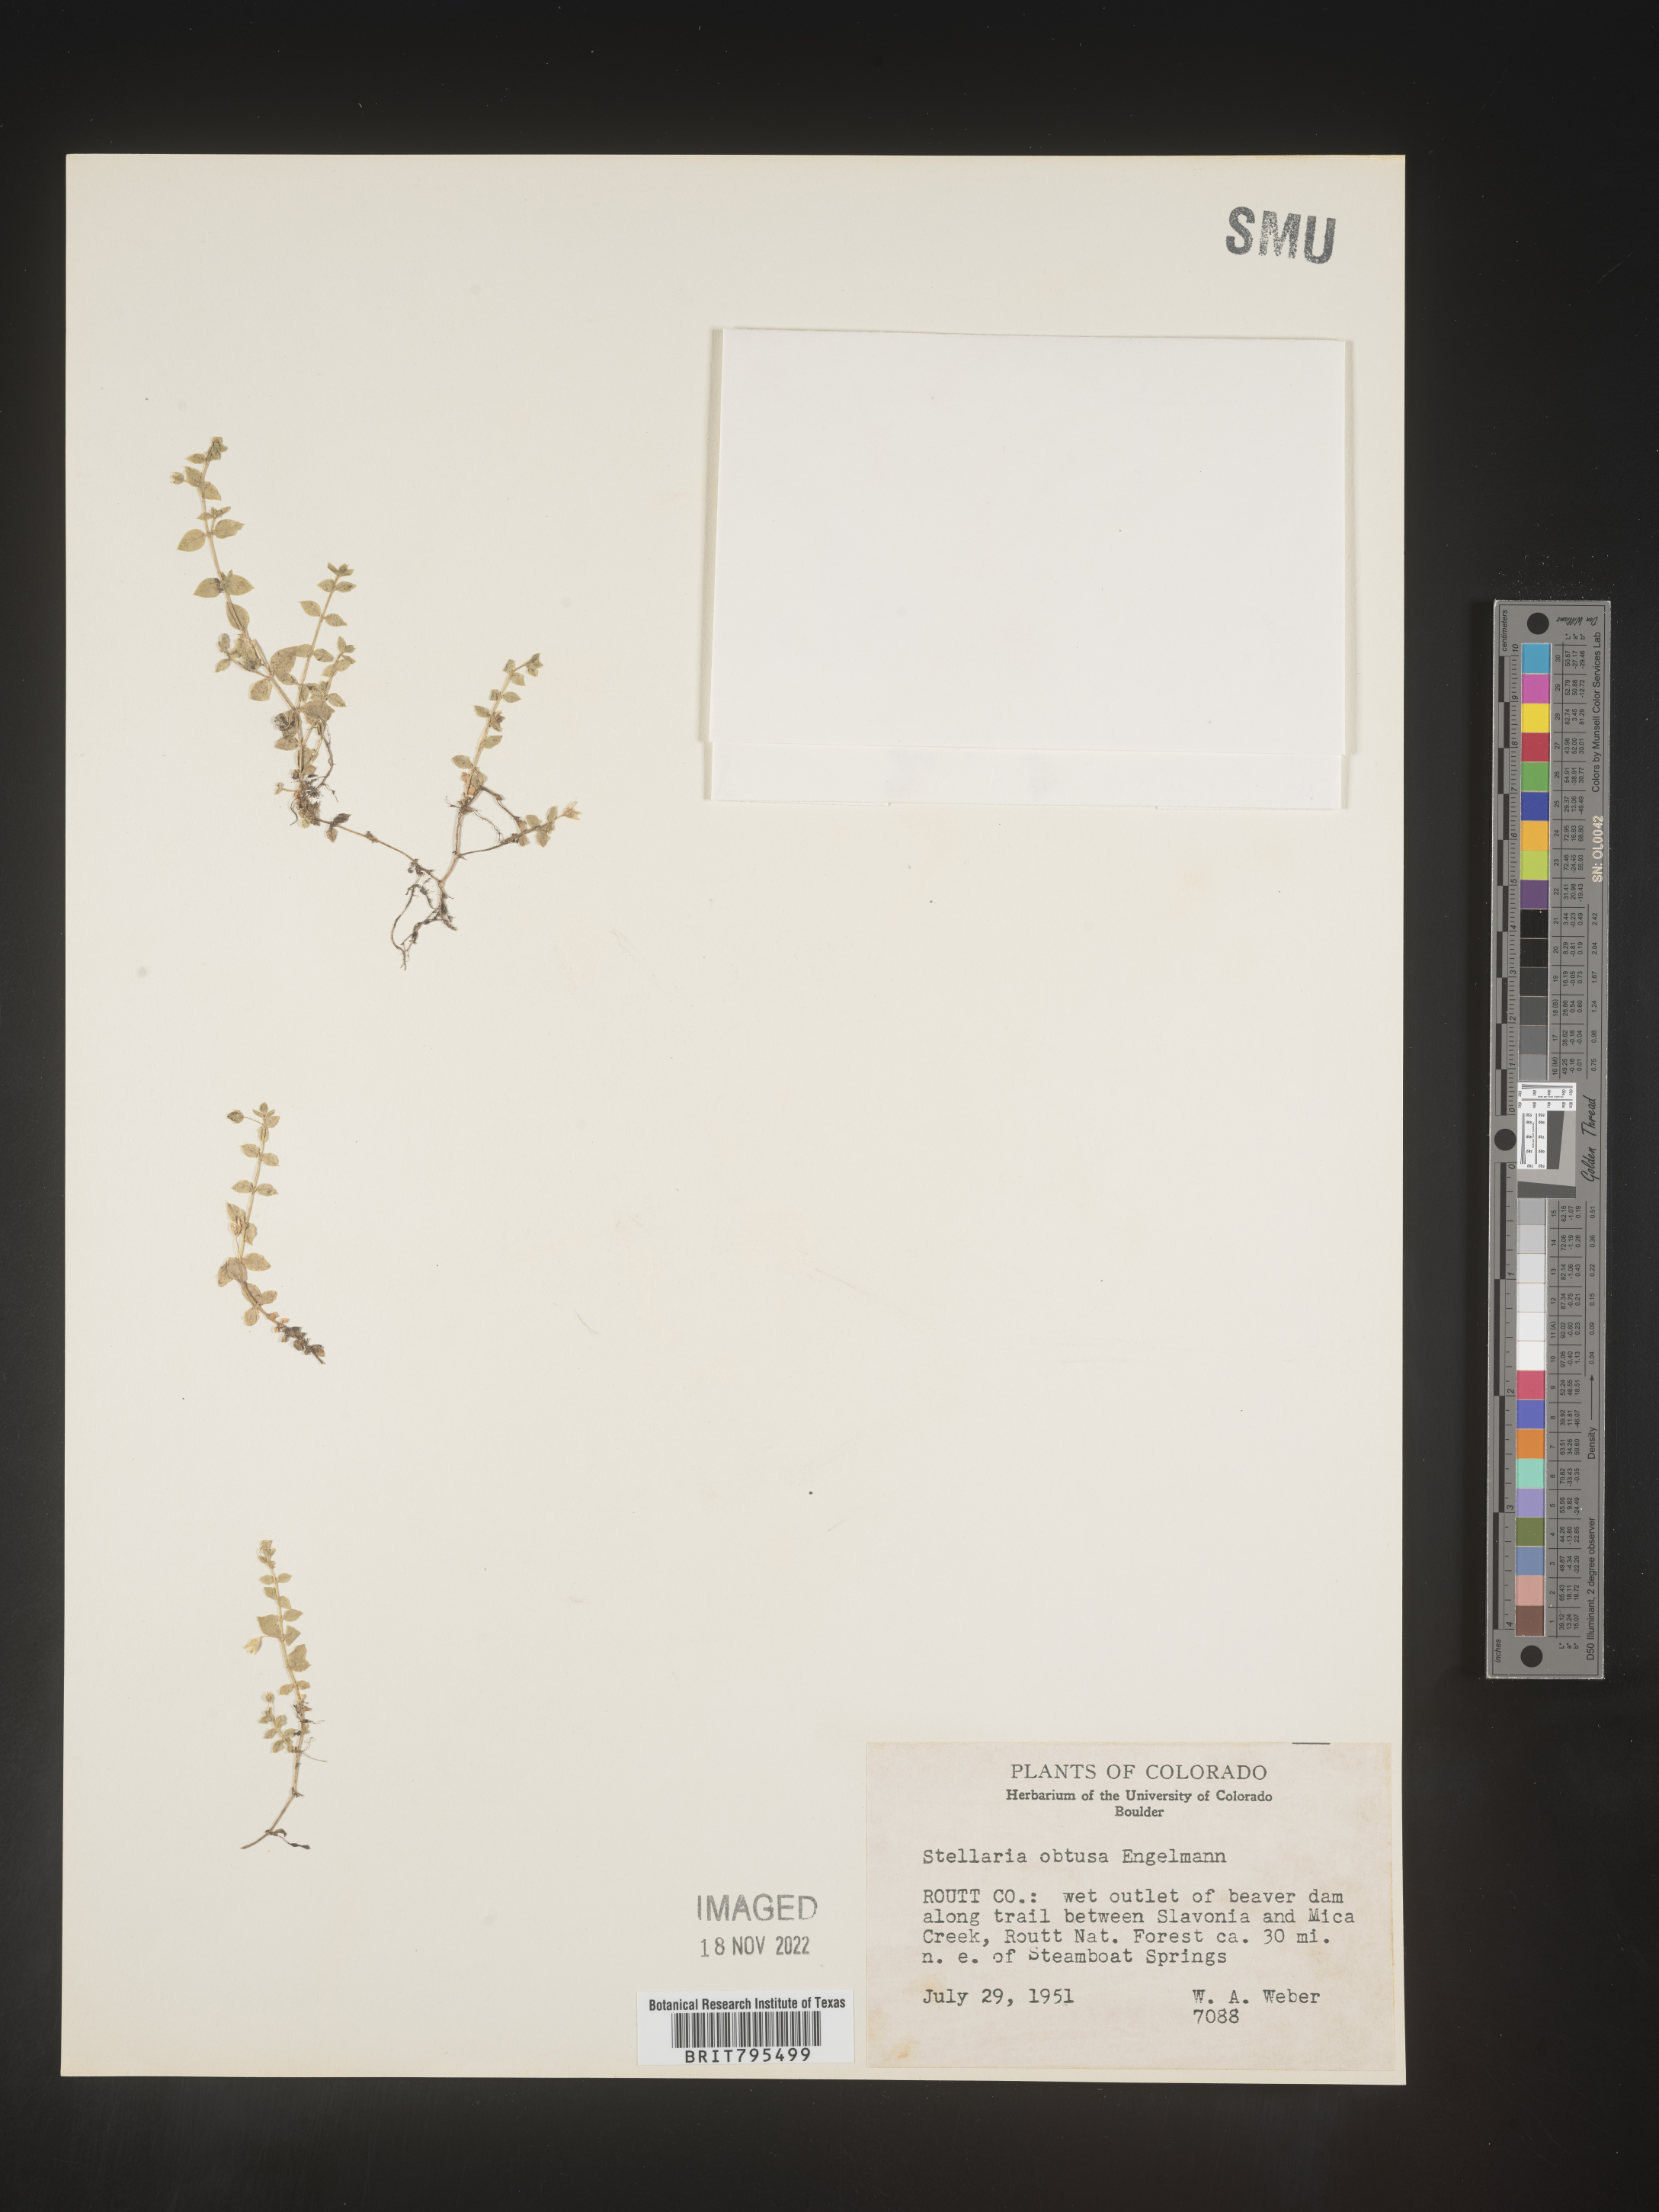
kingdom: Plantae
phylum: Tracheophyta
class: Magnoliopsida
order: Caryophyllales
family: Caryophyllaceae
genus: Stellaria
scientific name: Stellaria obtusa
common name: Rocky mountain chickweed
